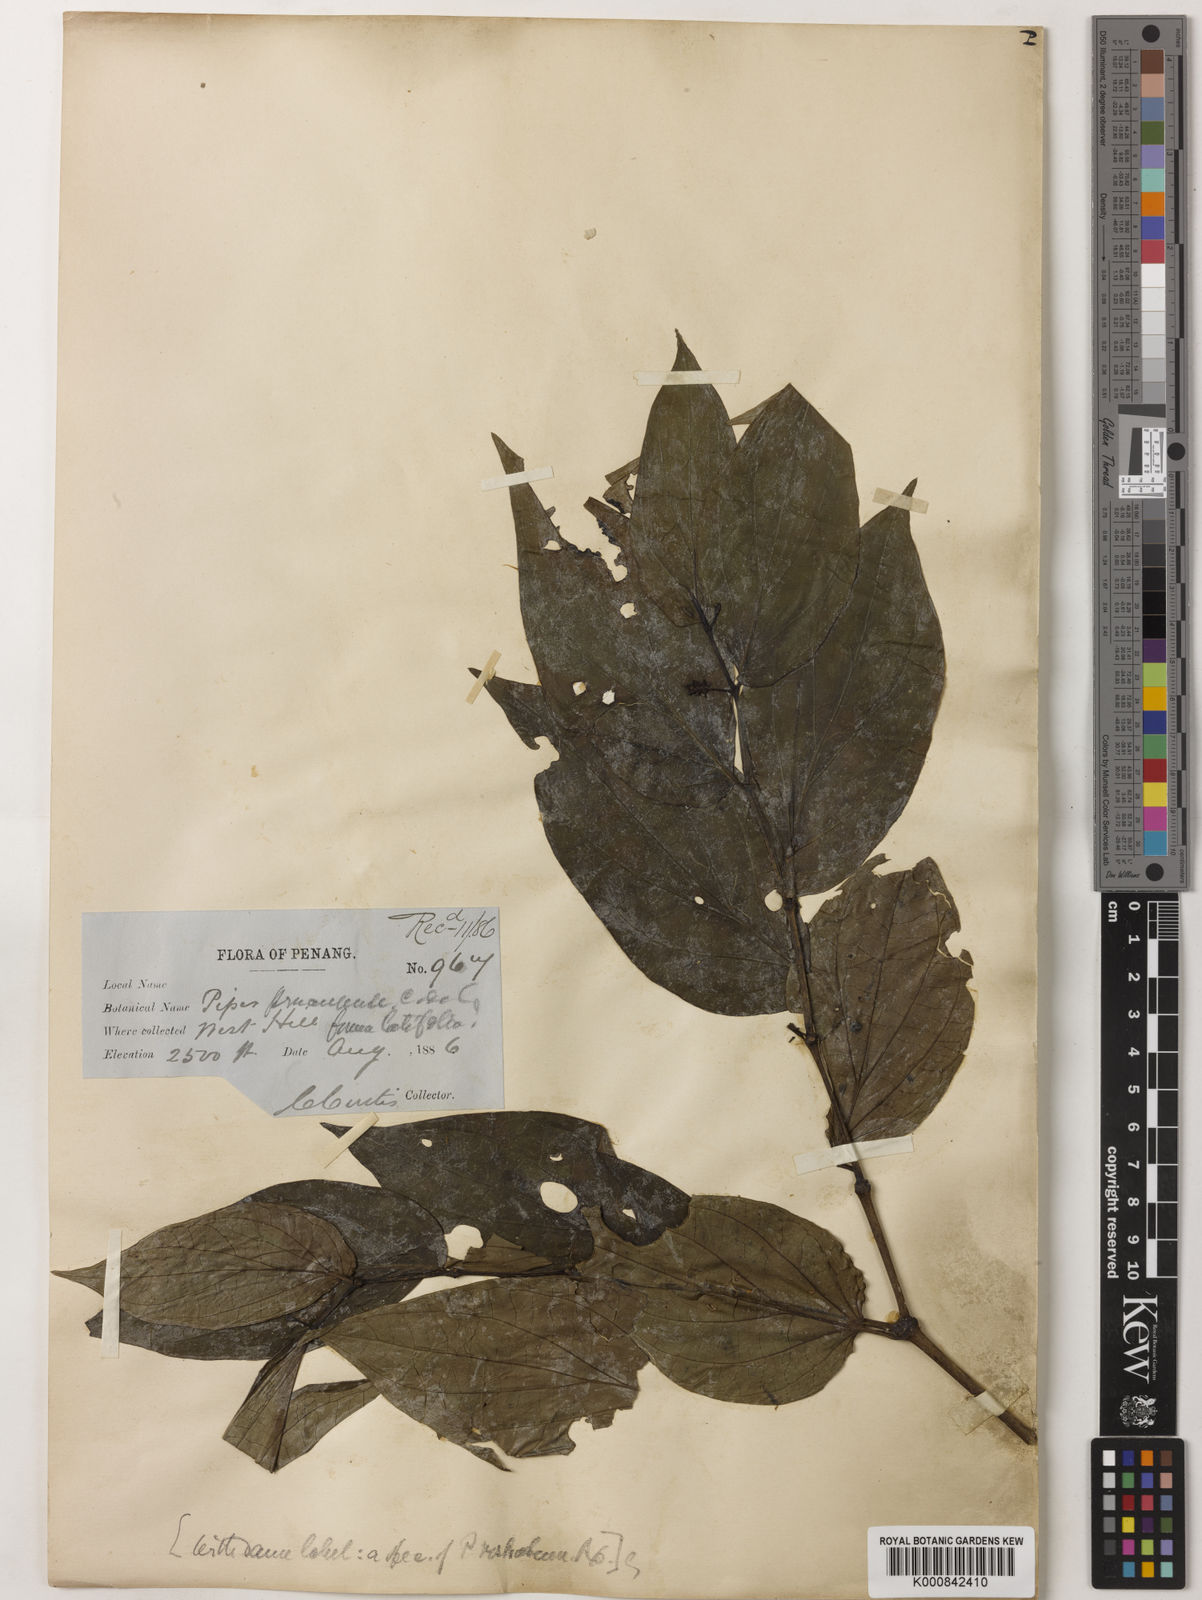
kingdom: Plantae
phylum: Tracheophyta
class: Magnoliopsida
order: Piperales
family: Piperaceae
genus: Piper
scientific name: Piper penangense
